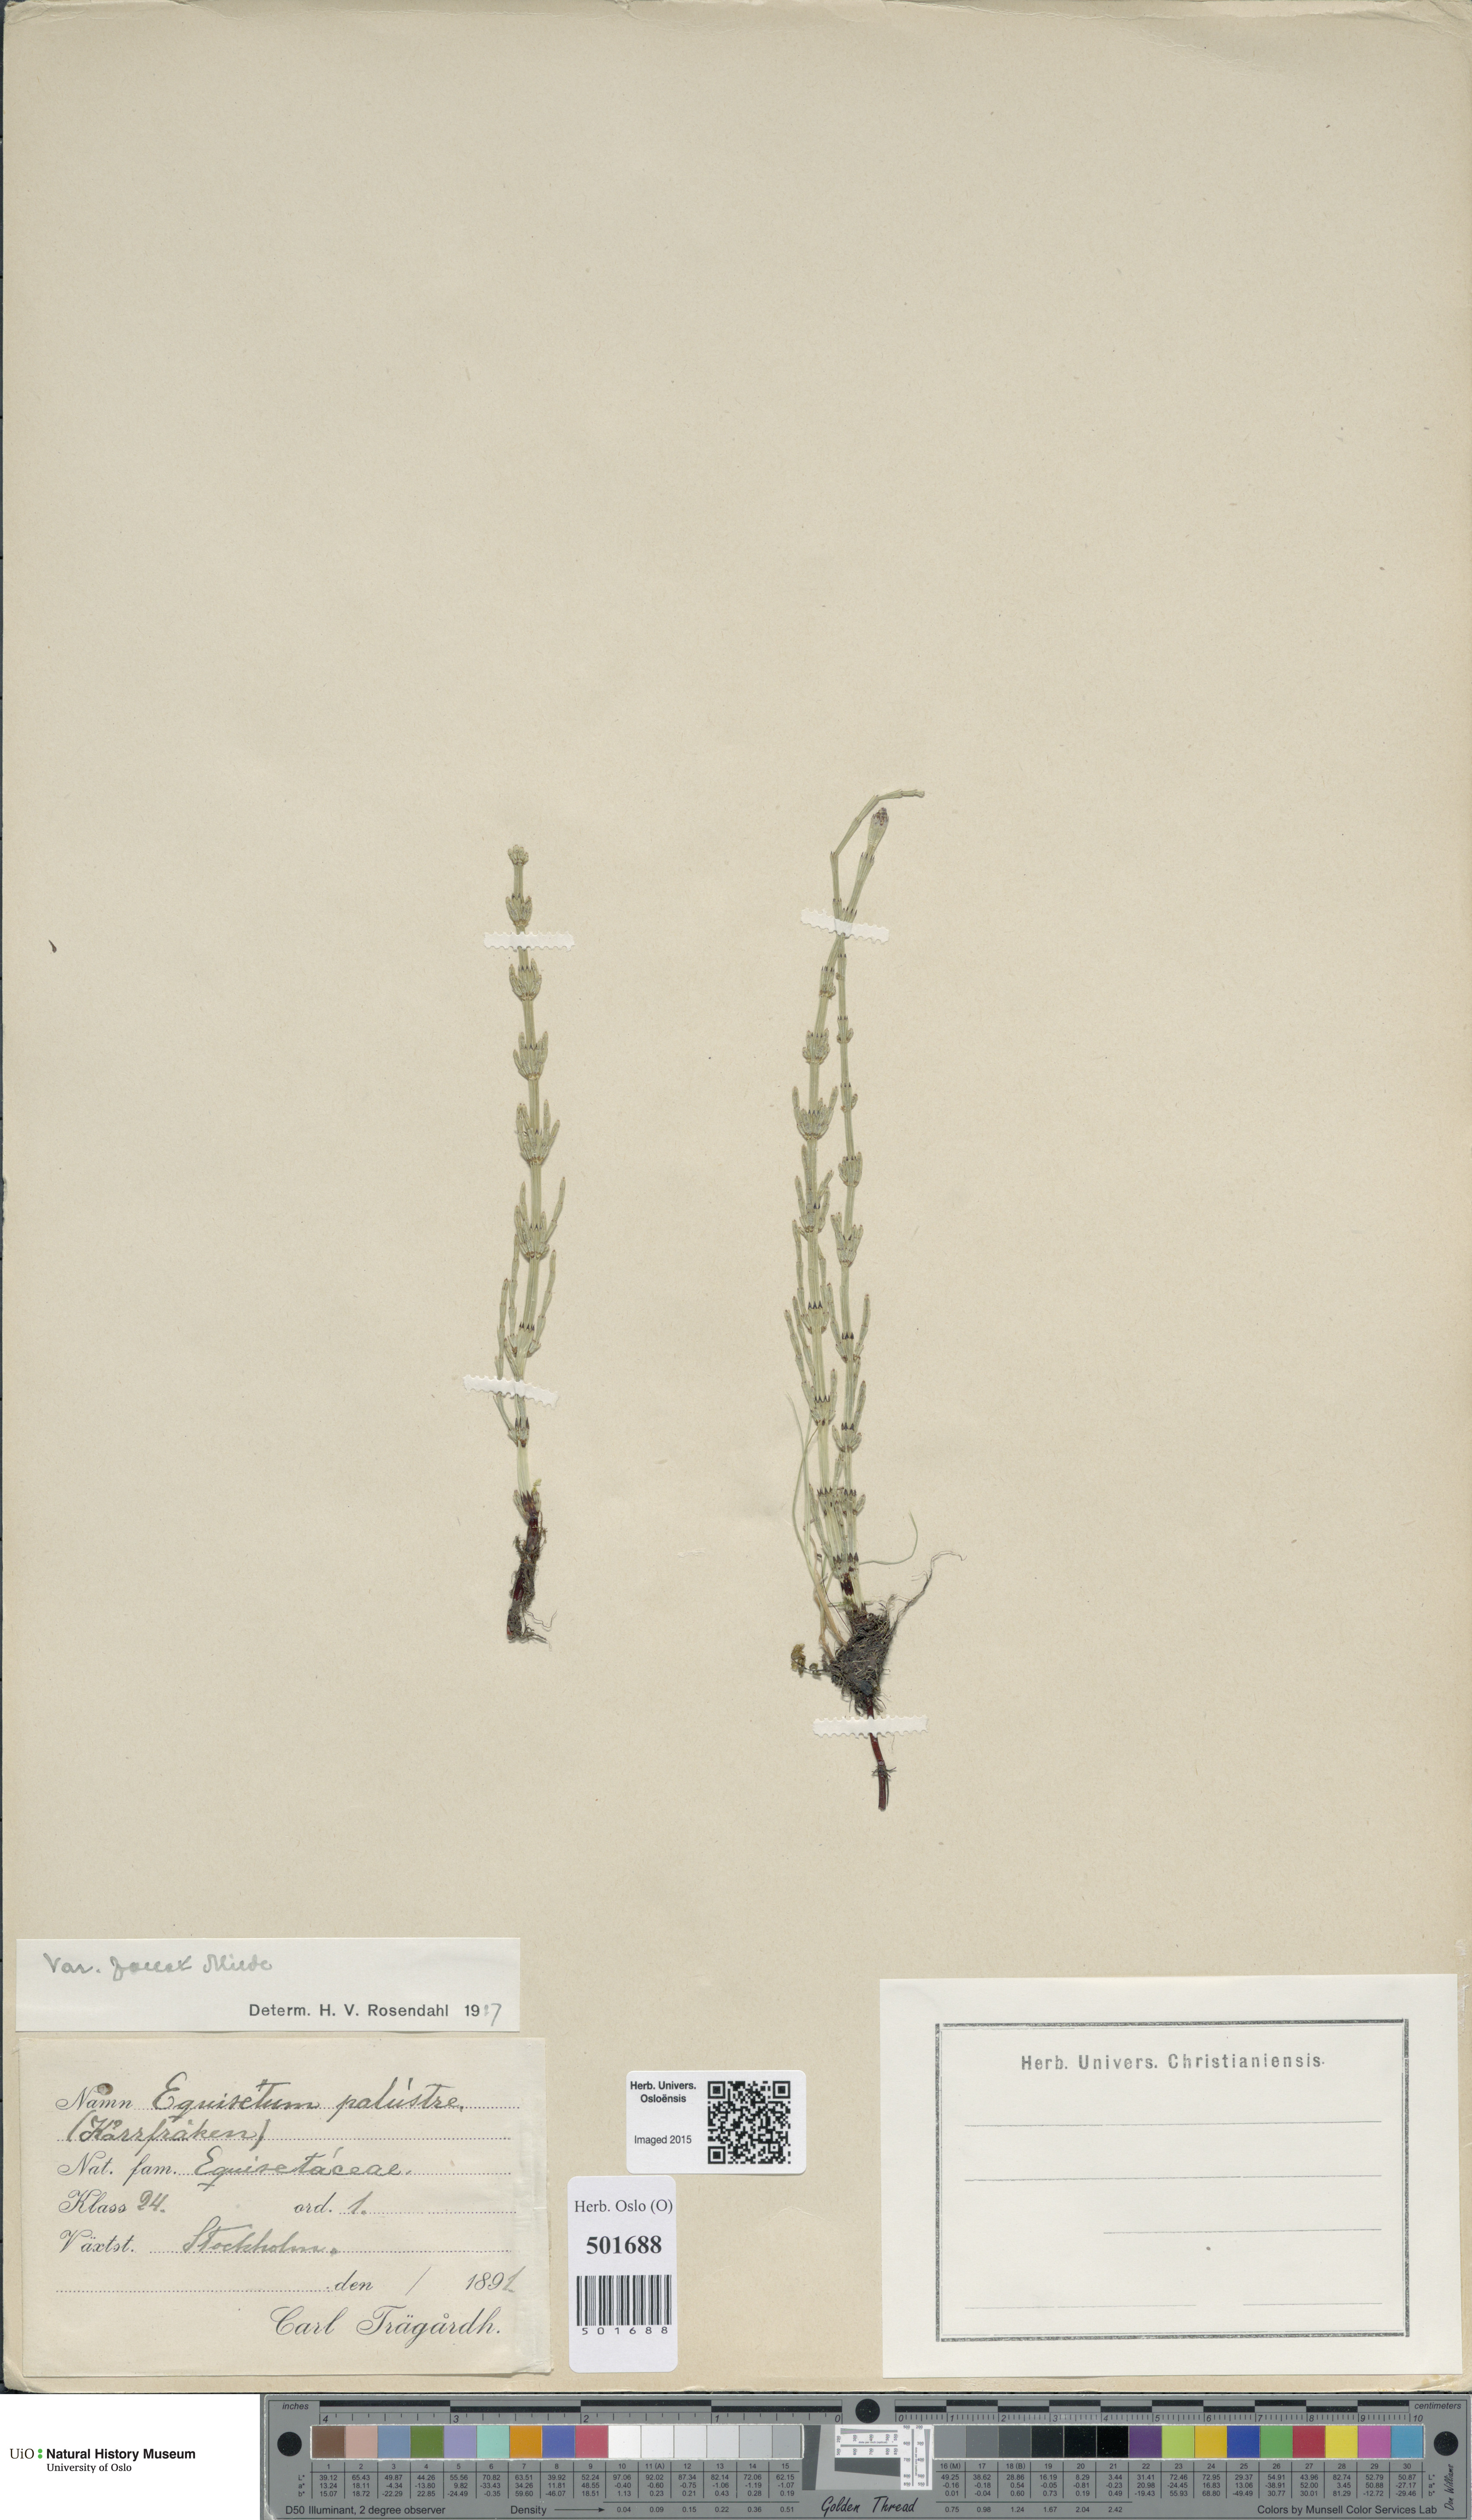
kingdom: Plantae
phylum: Tracheophyta
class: Polypodiopsida
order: Equisetales
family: Equisetaceae
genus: Equisetum
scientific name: Equisetum palustre
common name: Marsh horsetail
